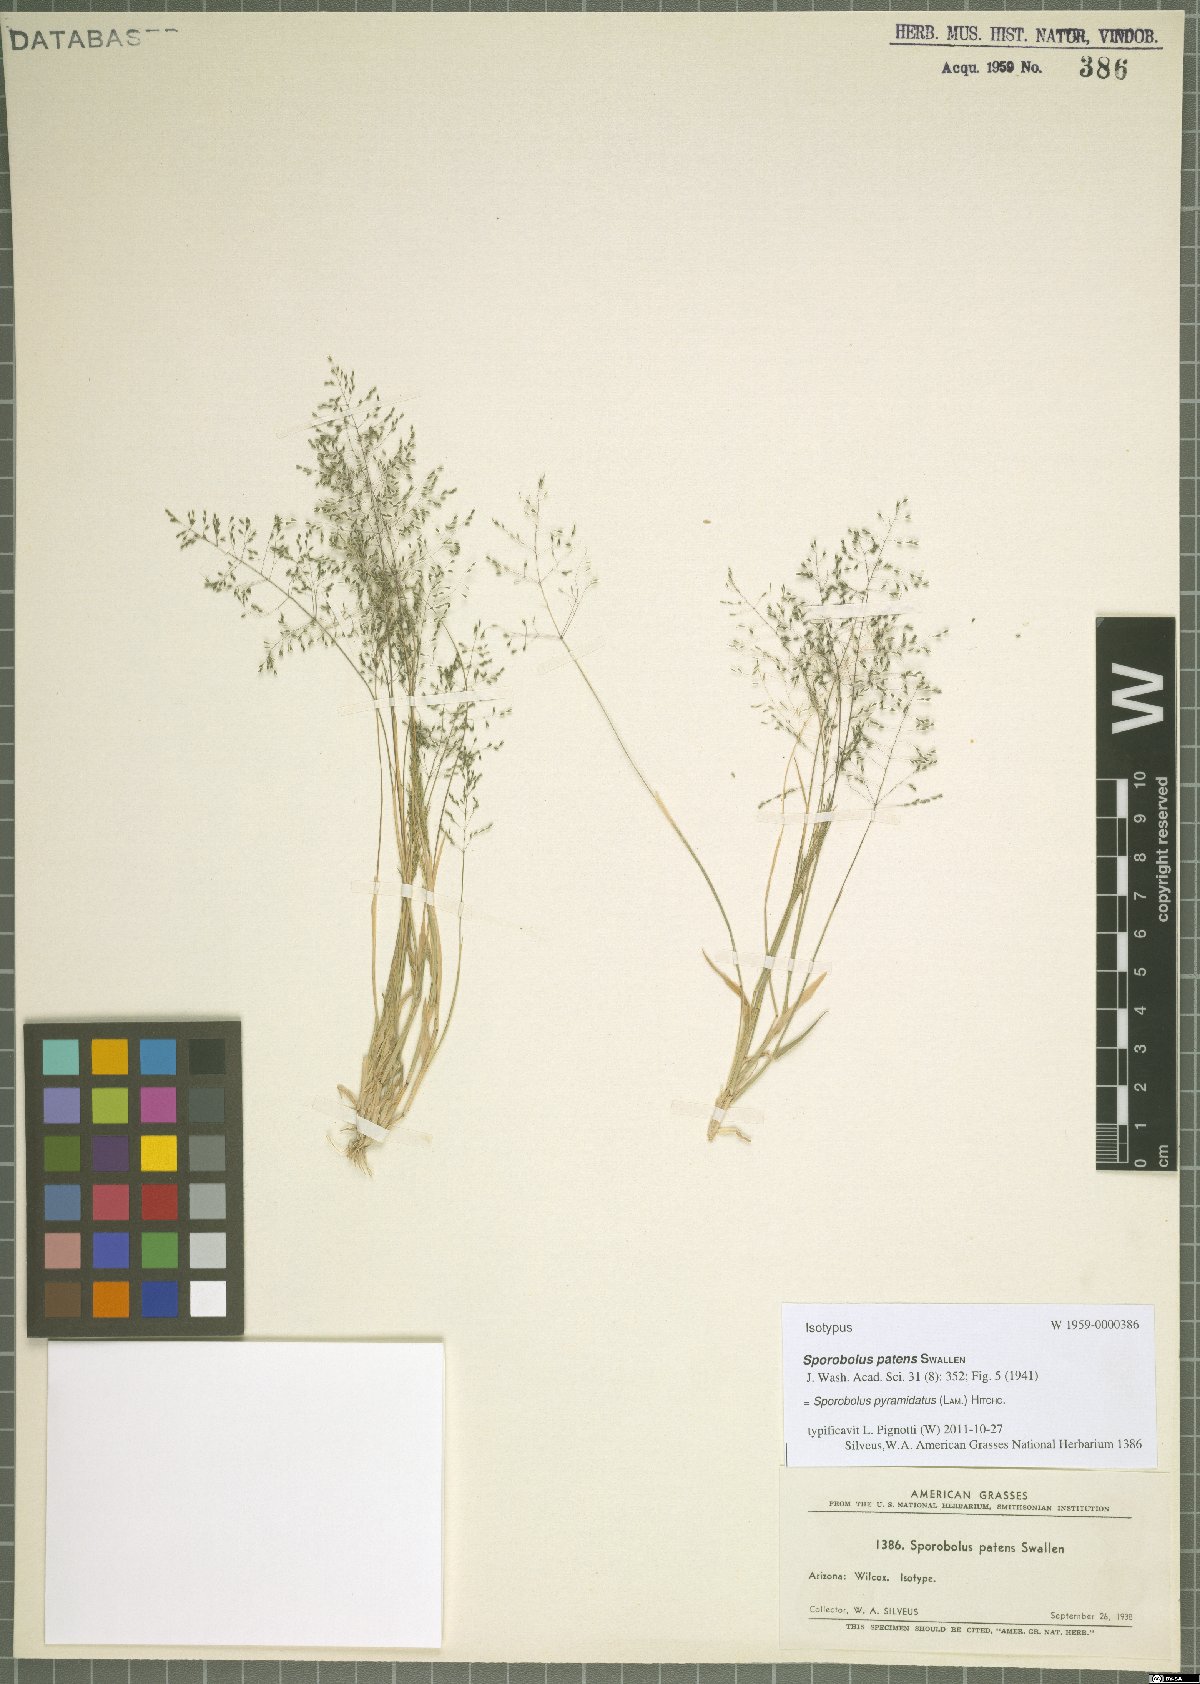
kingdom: Plantae
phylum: Tracheophyta
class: Liliopsida
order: Poales
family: Poaceae
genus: Sporobolus
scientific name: Sporobolus pyramidatus
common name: Whorled dropseed
